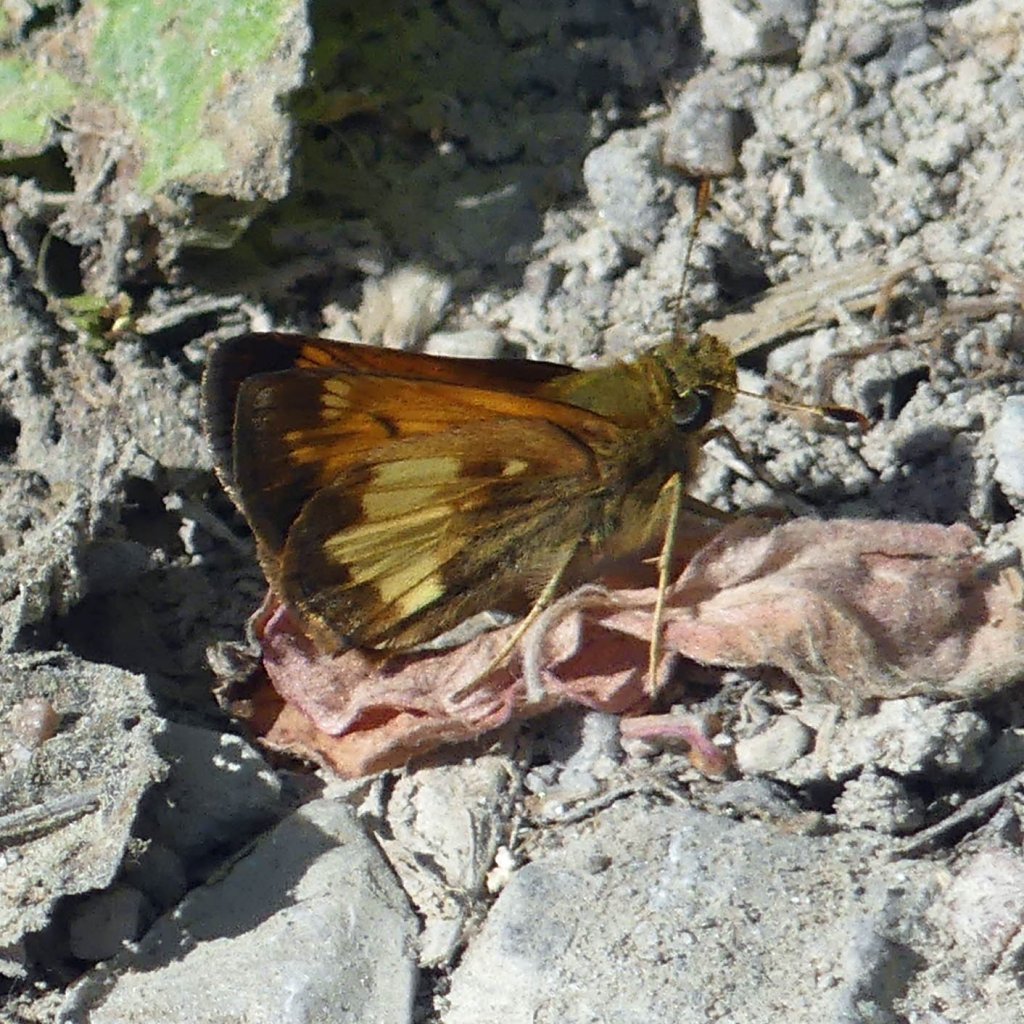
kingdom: Animalia
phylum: Arthropoda
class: Insecta
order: Lepidoptera
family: Hesperiidae
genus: Lon
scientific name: Lon hobomok
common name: Hobomok Skipper
